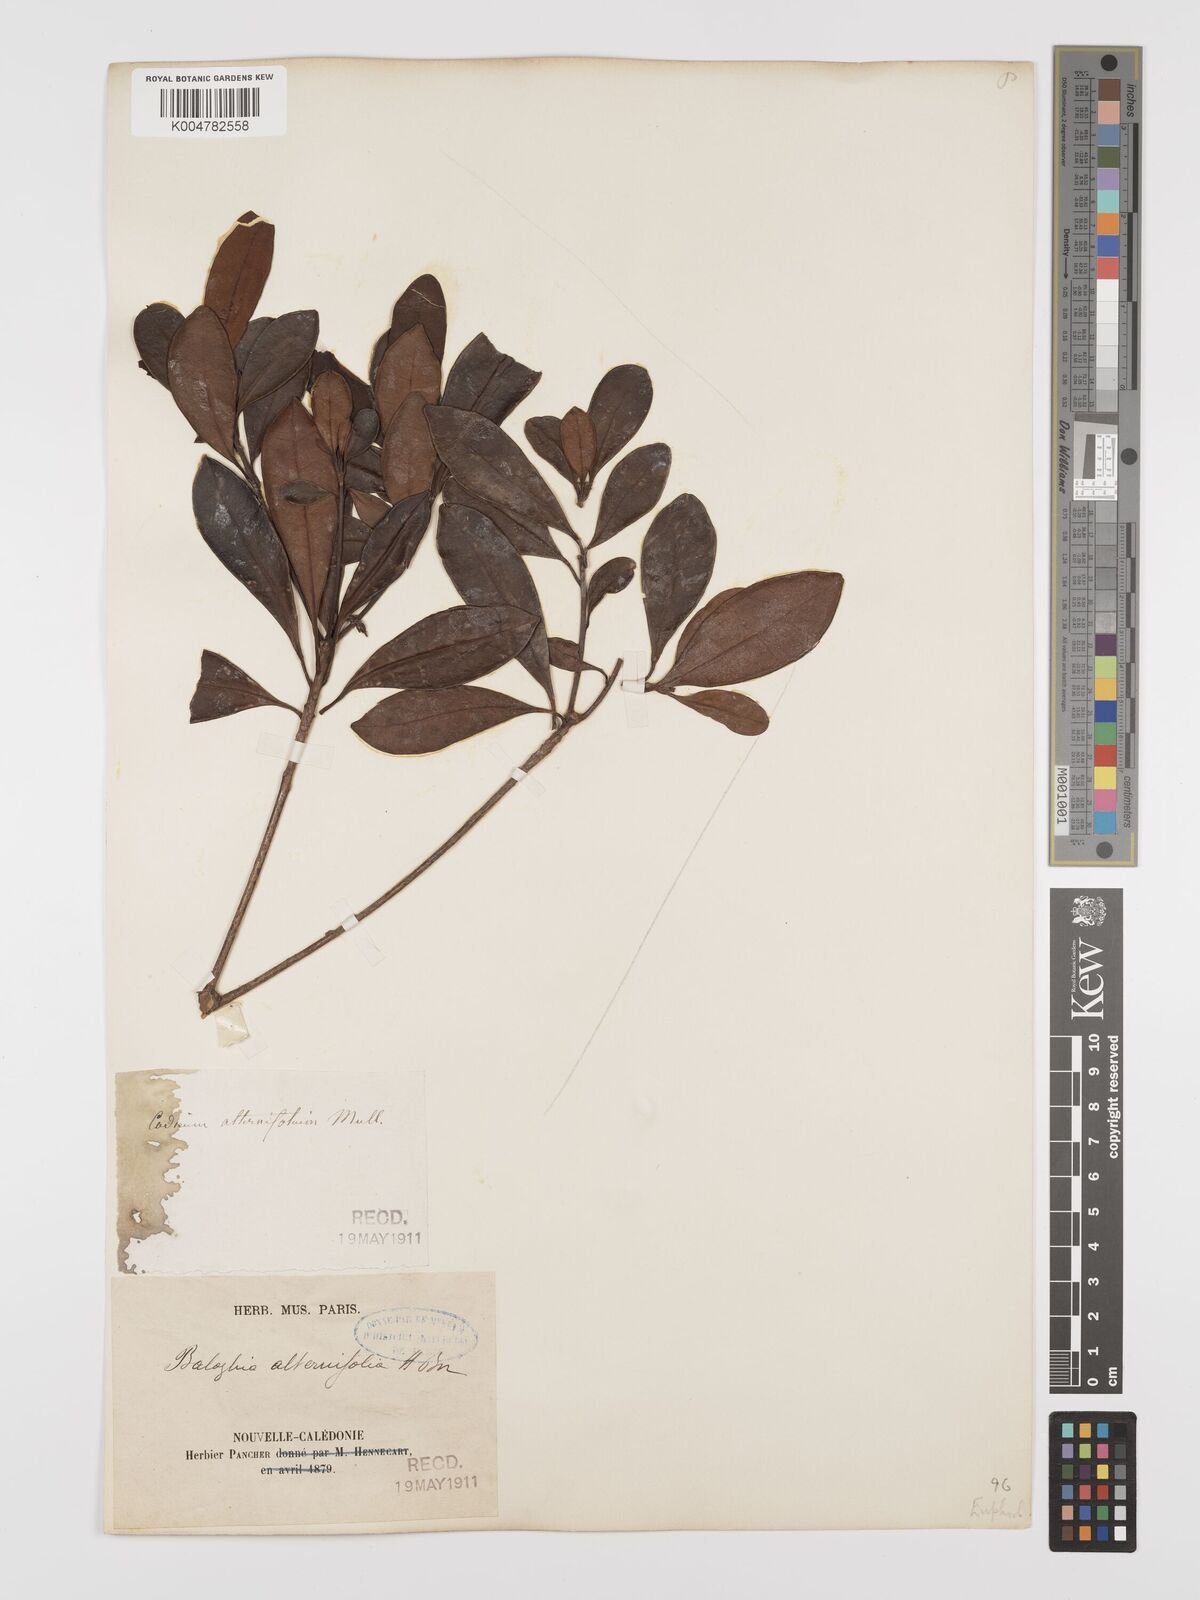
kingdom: Plantae
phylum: Tracheophyta
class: Magnoliopsida
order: Malpighiales
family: Euphorbiaceae
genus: Baloghia
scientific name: Baloghia alternifolia
